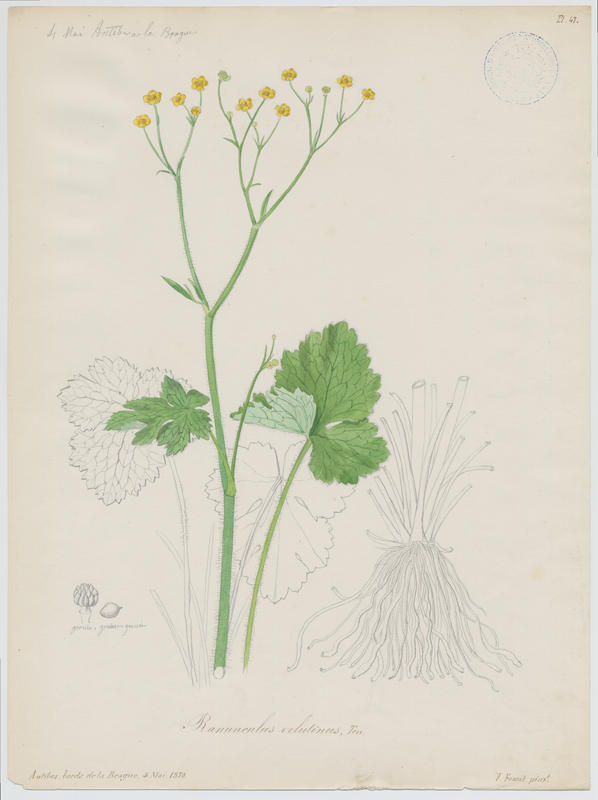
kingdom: Plantae
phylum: Tracheophyta
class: Magnoliopsida
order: Ranunculales
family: Ranunculaceae
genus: Ranunculus
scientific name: Ranunculus velutinus
